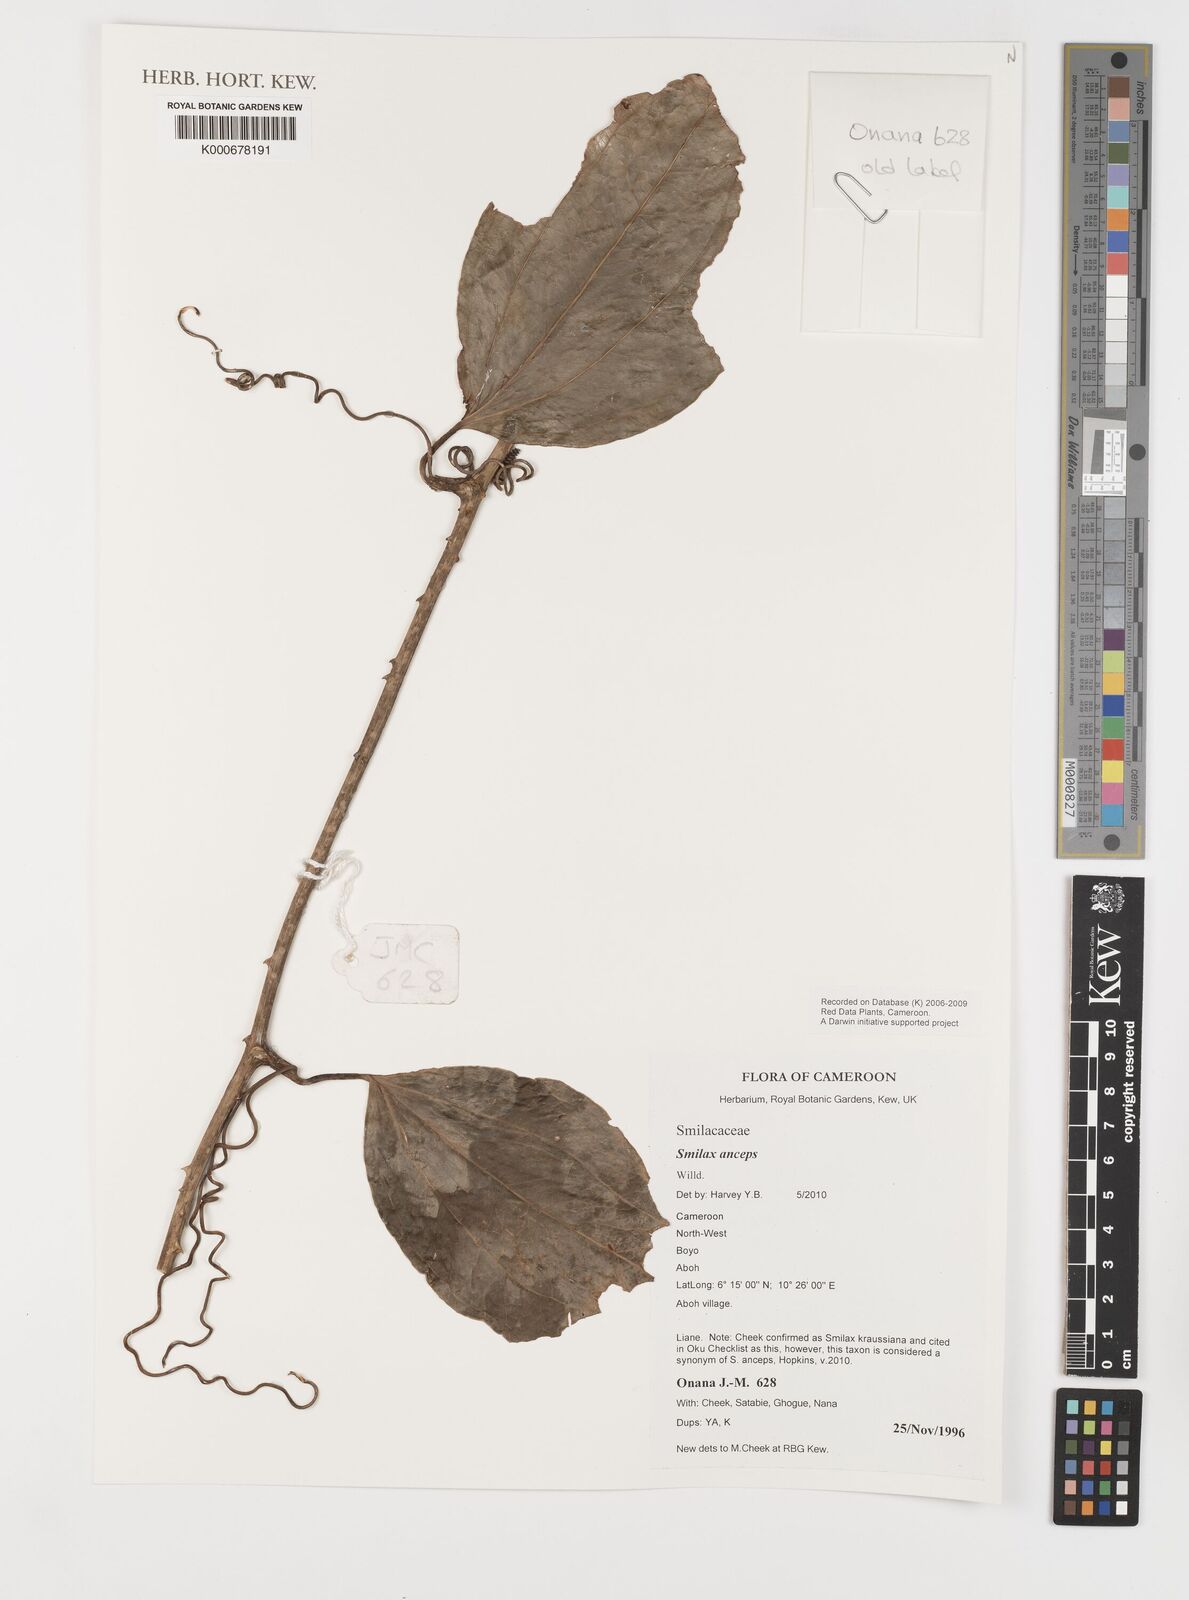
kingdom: Plantae
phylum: Tracheophyta
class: Liliopsida
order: Liliales
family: Smilacaceae
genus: Smilax
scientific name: Smilax anceps
